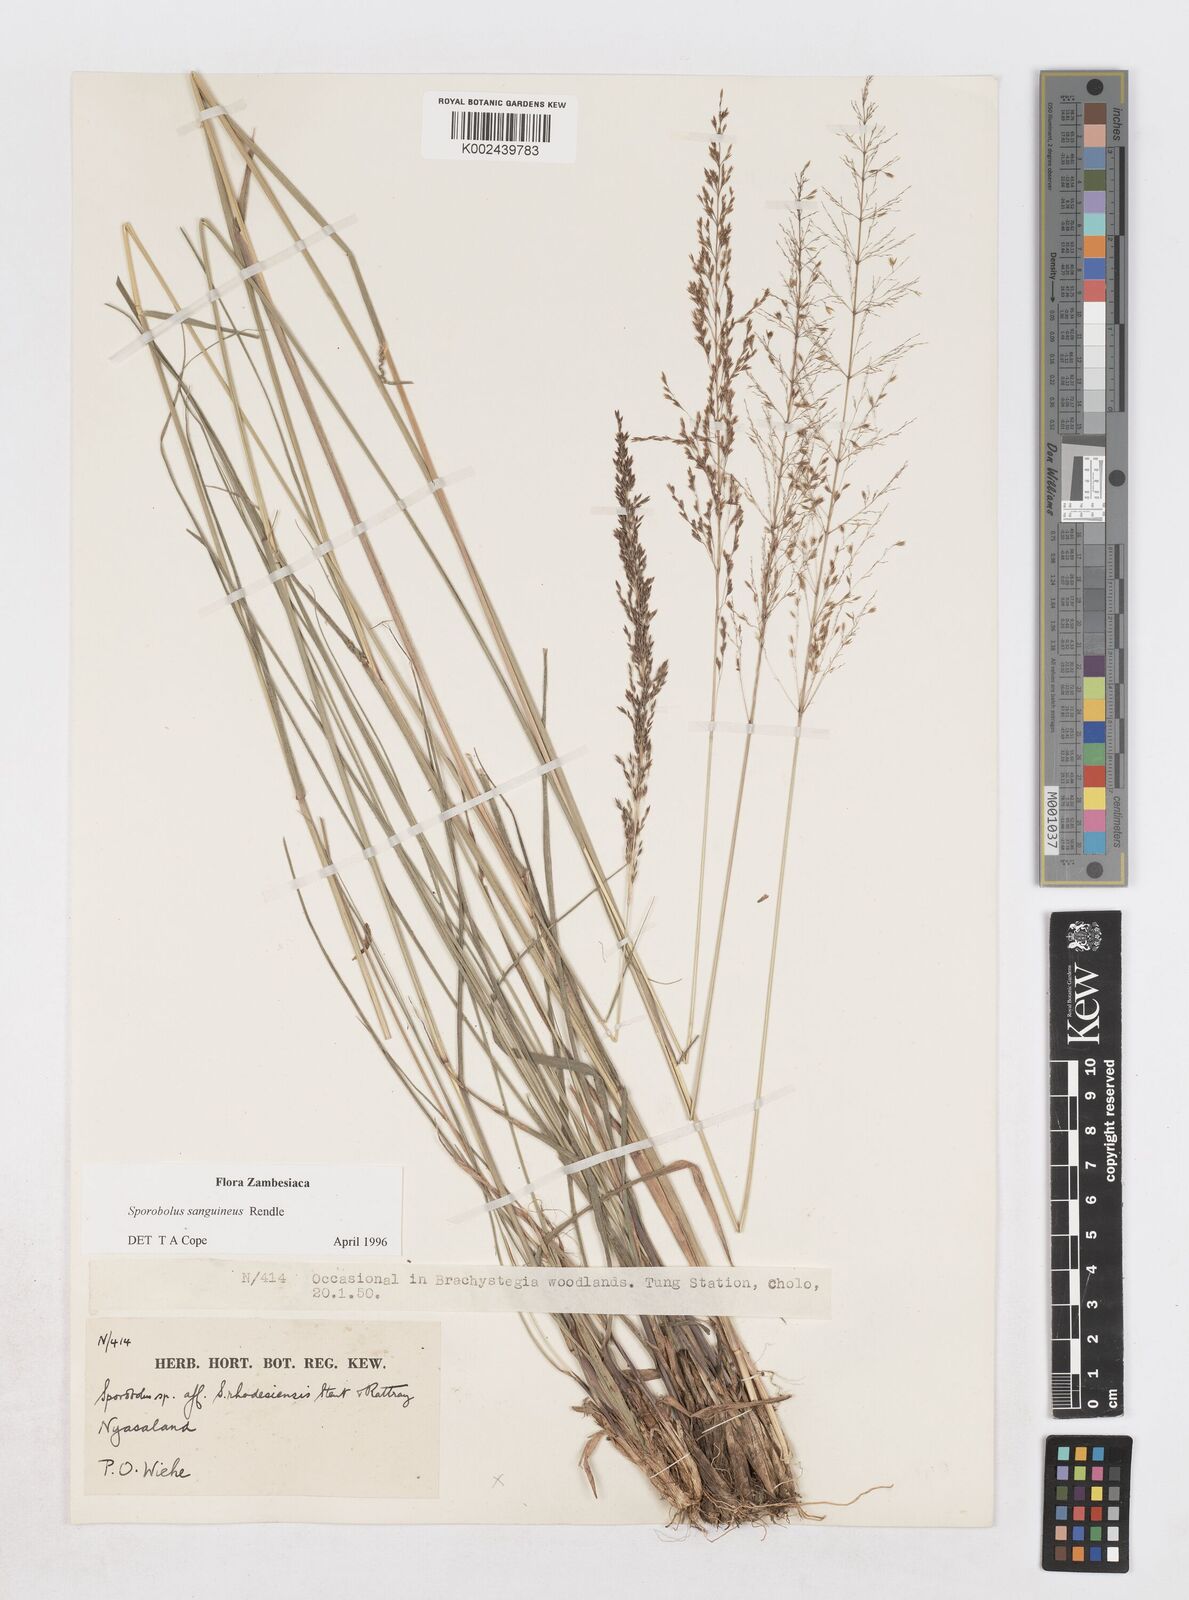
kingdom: Plantae
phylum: Tracheophyta
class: Liliopsida
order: Poales
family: Poaceae
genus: Sporobolus
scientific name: Sporobolus sanguineus
